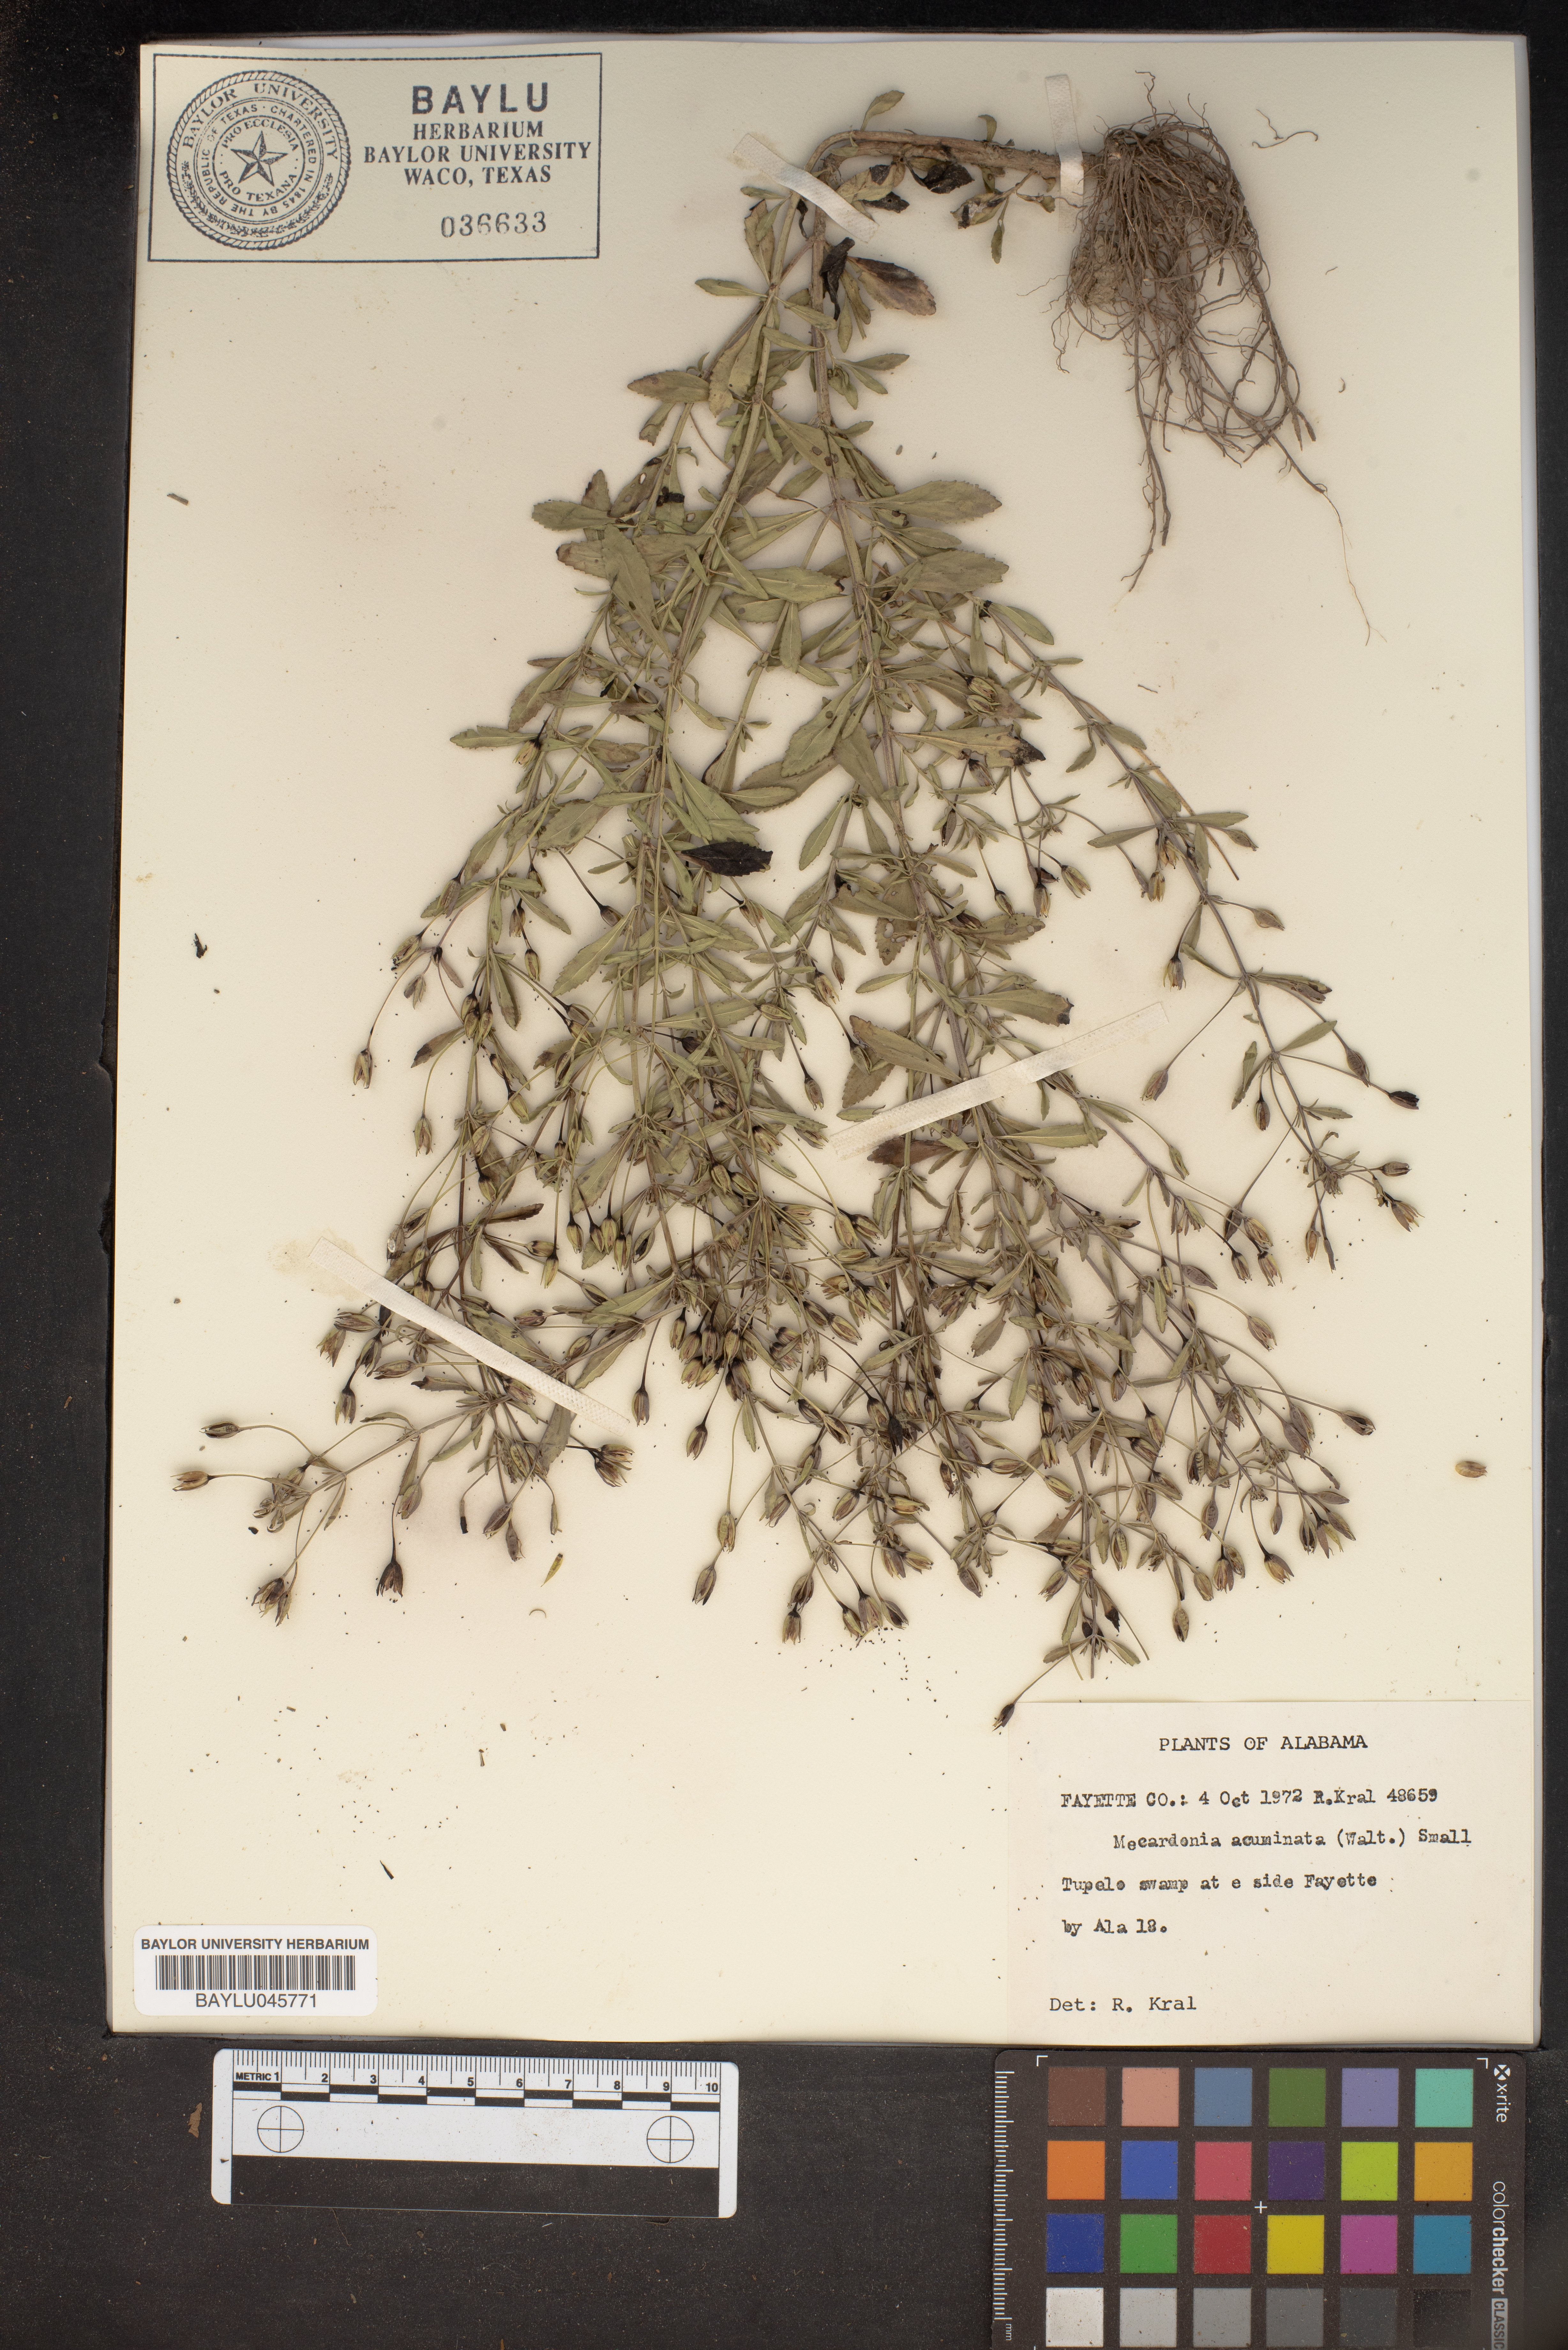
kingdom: Plantae
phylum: Tracheophyta
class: Magnoliopsida
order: Lamiales
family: Plantaginaceae
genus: Mecardonia
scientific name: Mecardonia acuminata
